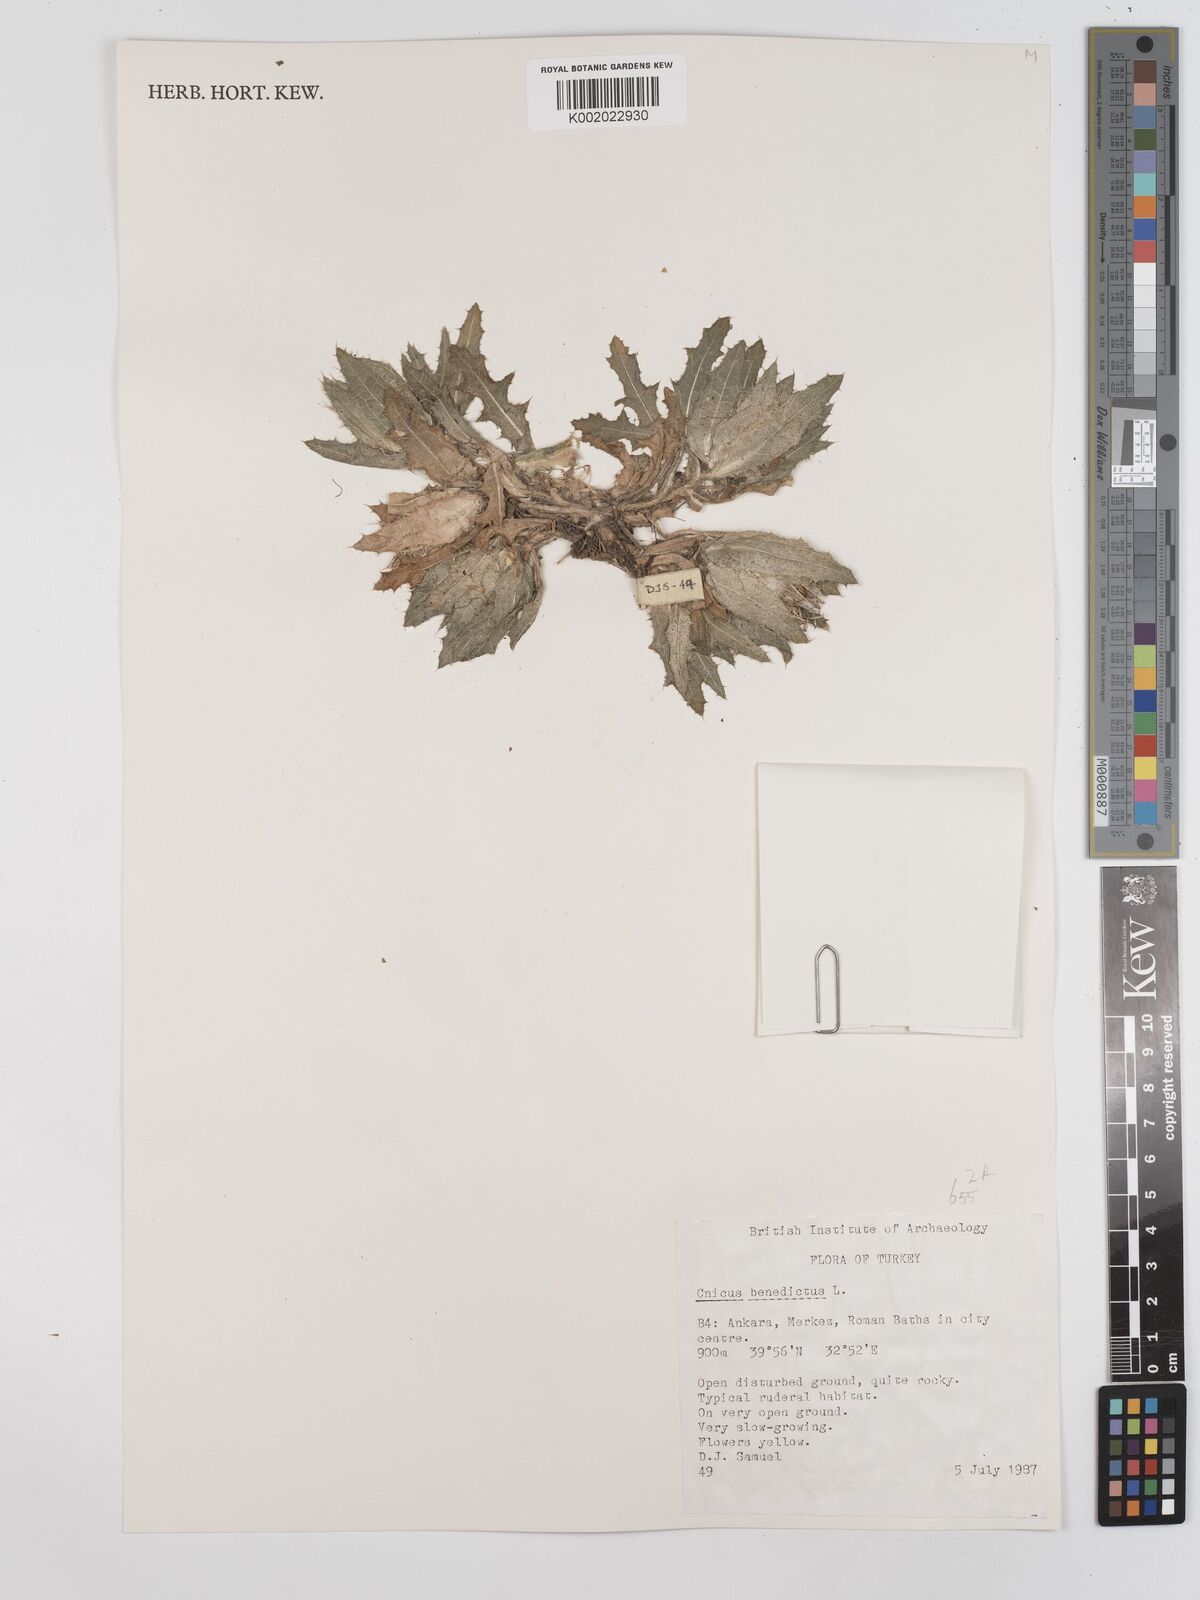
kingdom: Plantae
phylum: Tracheophyta
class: Magnoliopsida
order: Asterales
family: Asteraceae
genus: Centaurea
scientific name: Centaurea benedicta
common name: Blessed thistle
